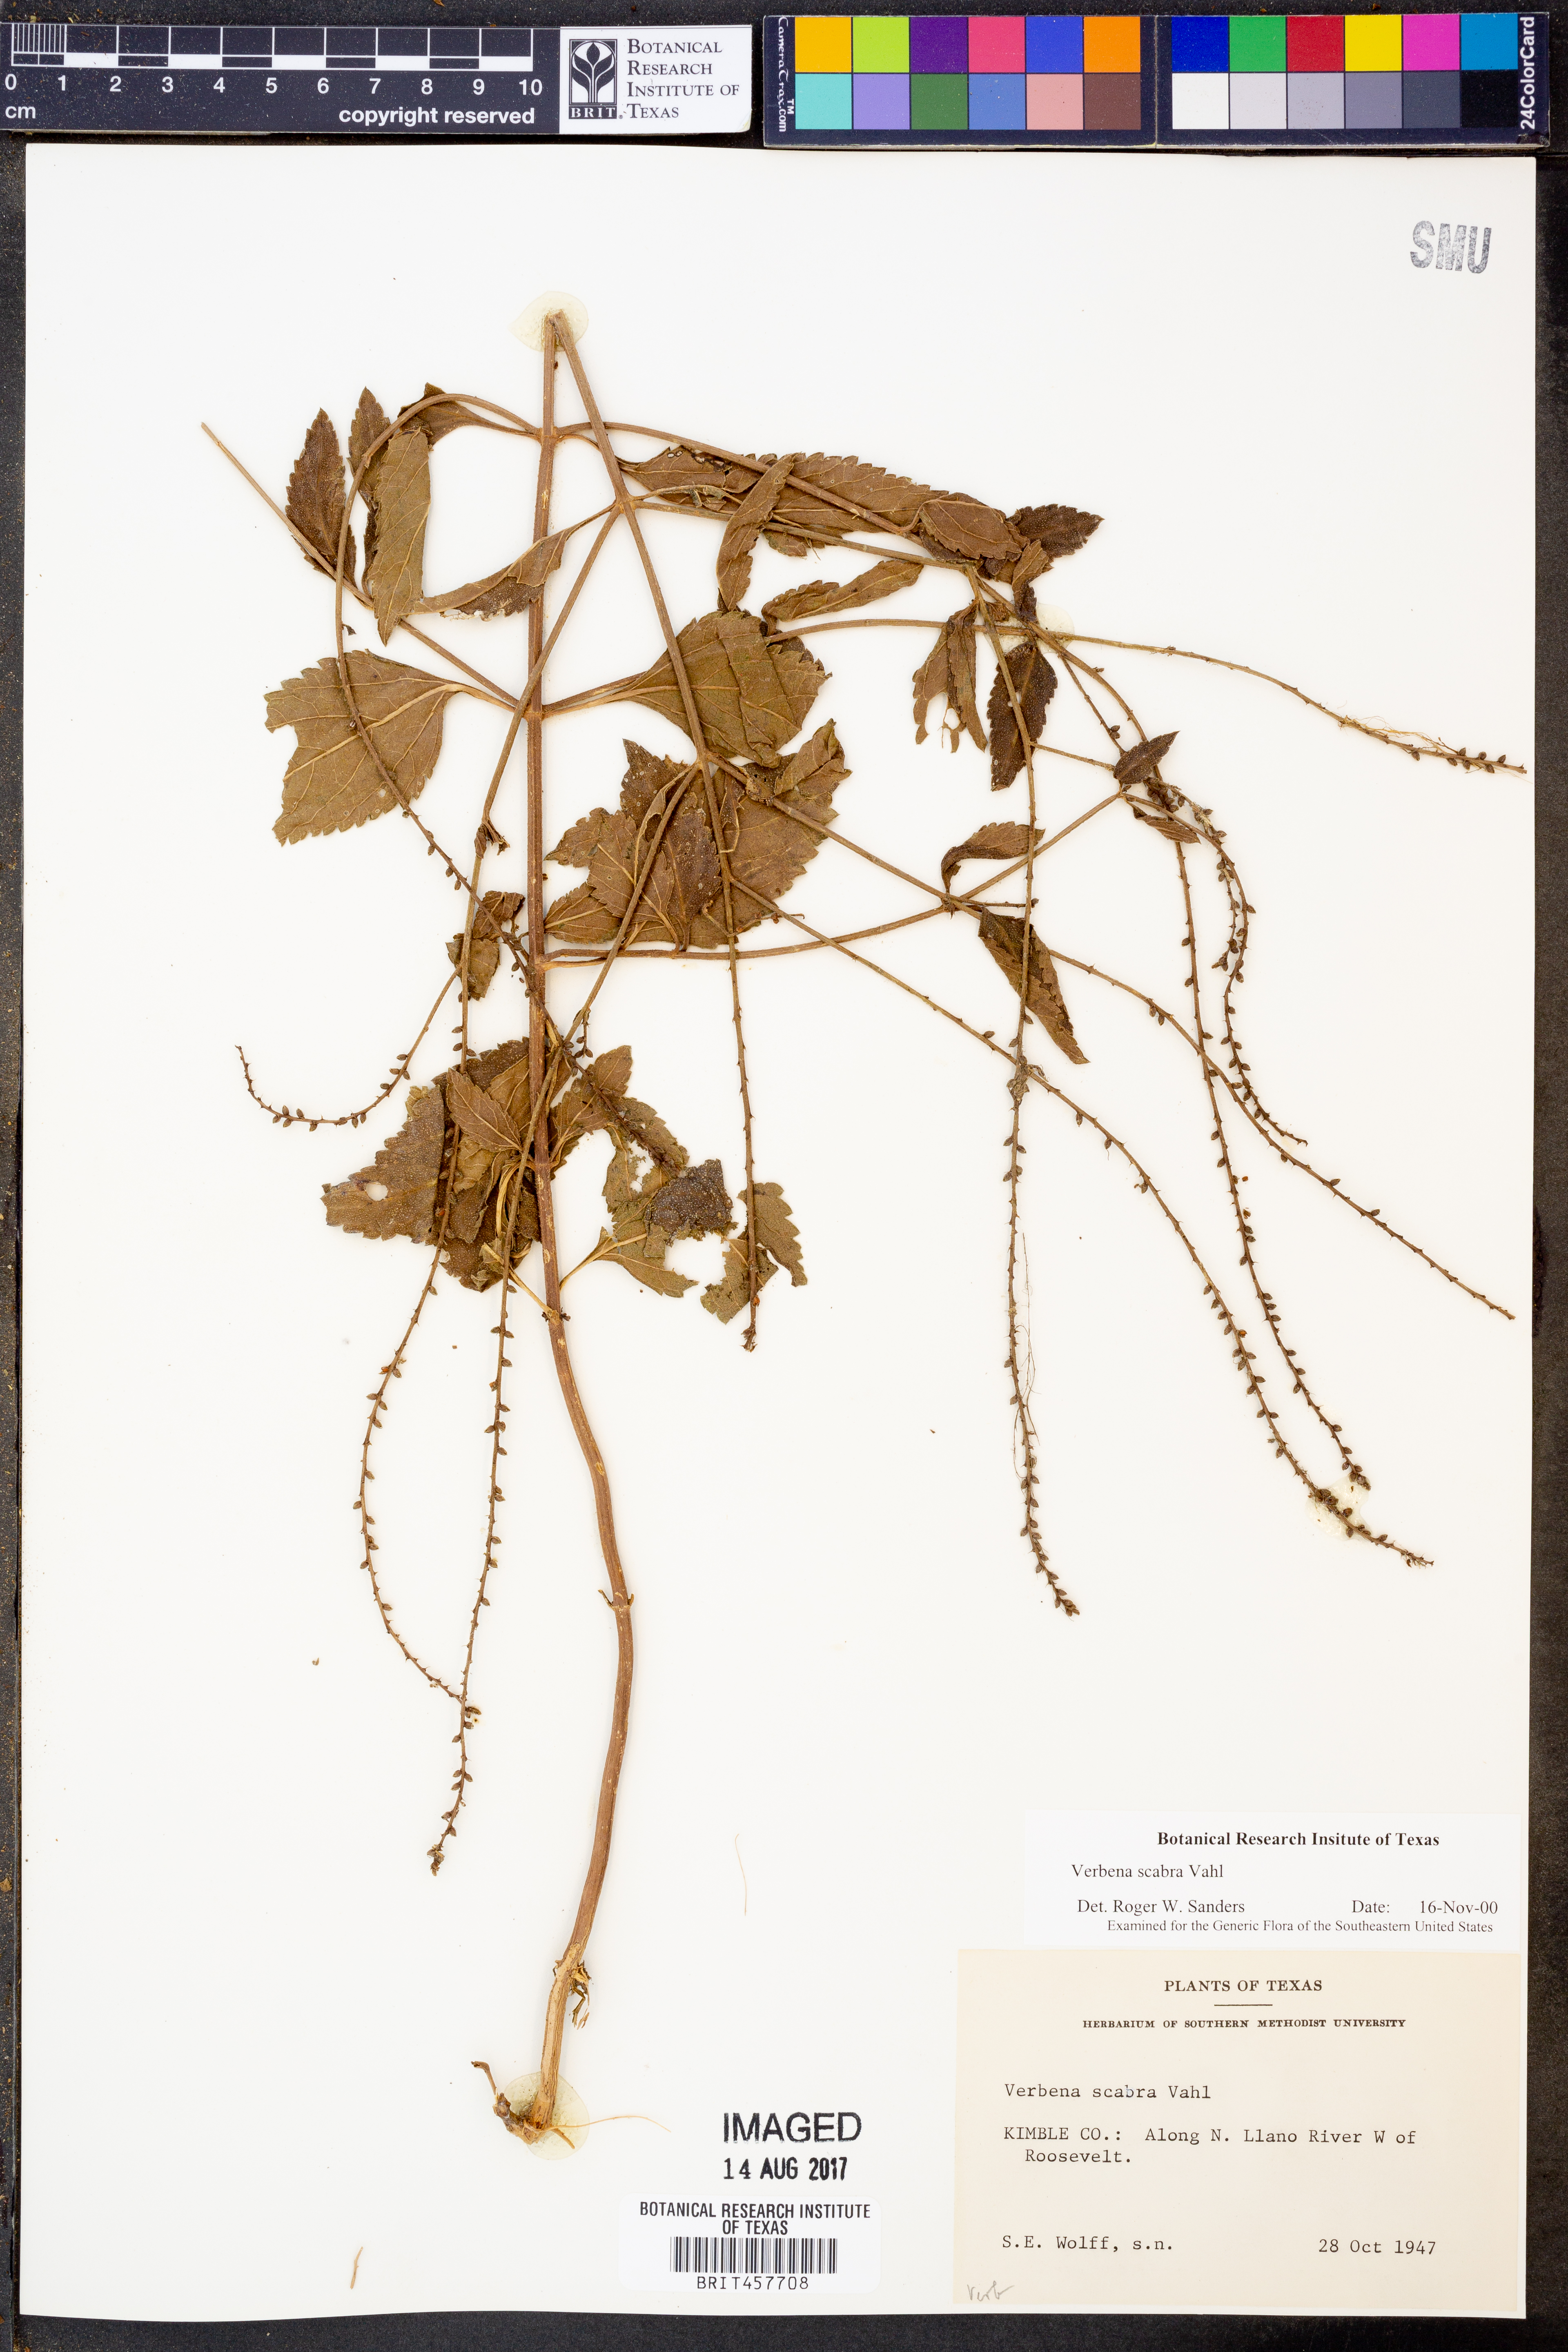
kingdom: Plantae
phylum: Tracheophyta
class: Magnoliopsida
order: Lamiales
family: Verbenaceae
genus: Verbena
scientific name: Verbena scabra
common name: Sandpaper vervain
